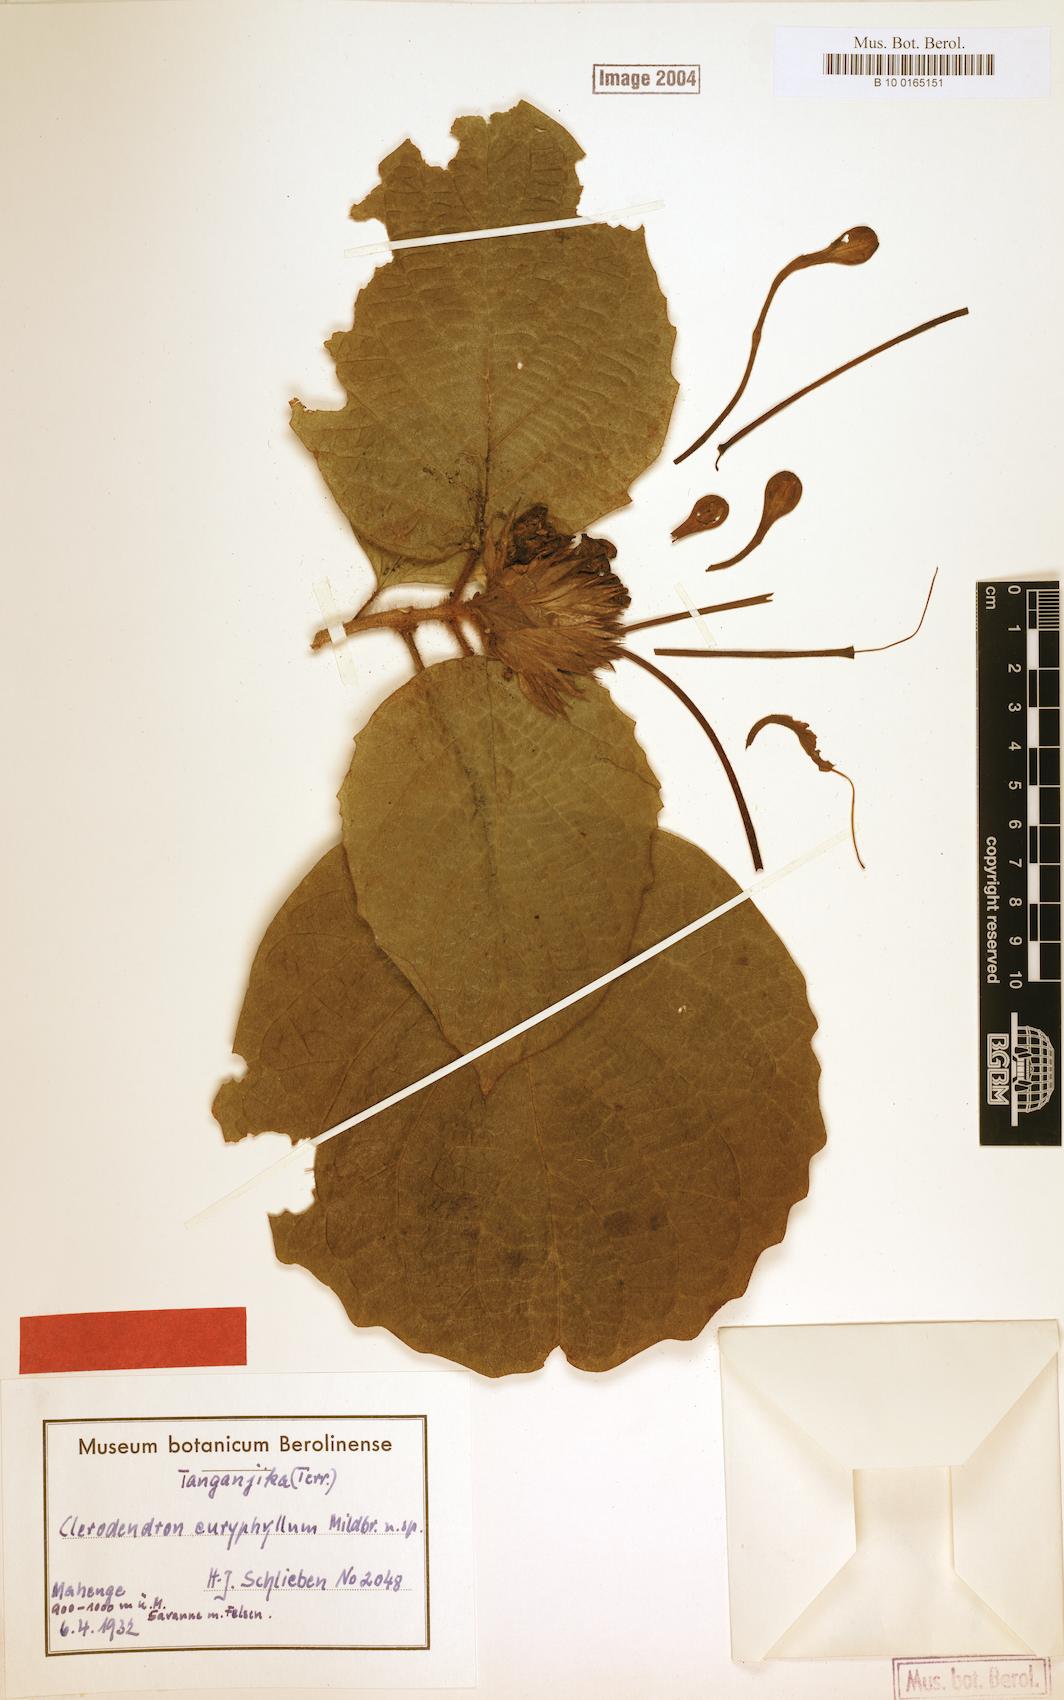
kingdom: Plantae
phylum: Tracheophyta
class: Magnoliopsida
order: Lamiales
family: Lamiaceae
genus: Clerodendrum
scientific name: Clerodendrum poggei
